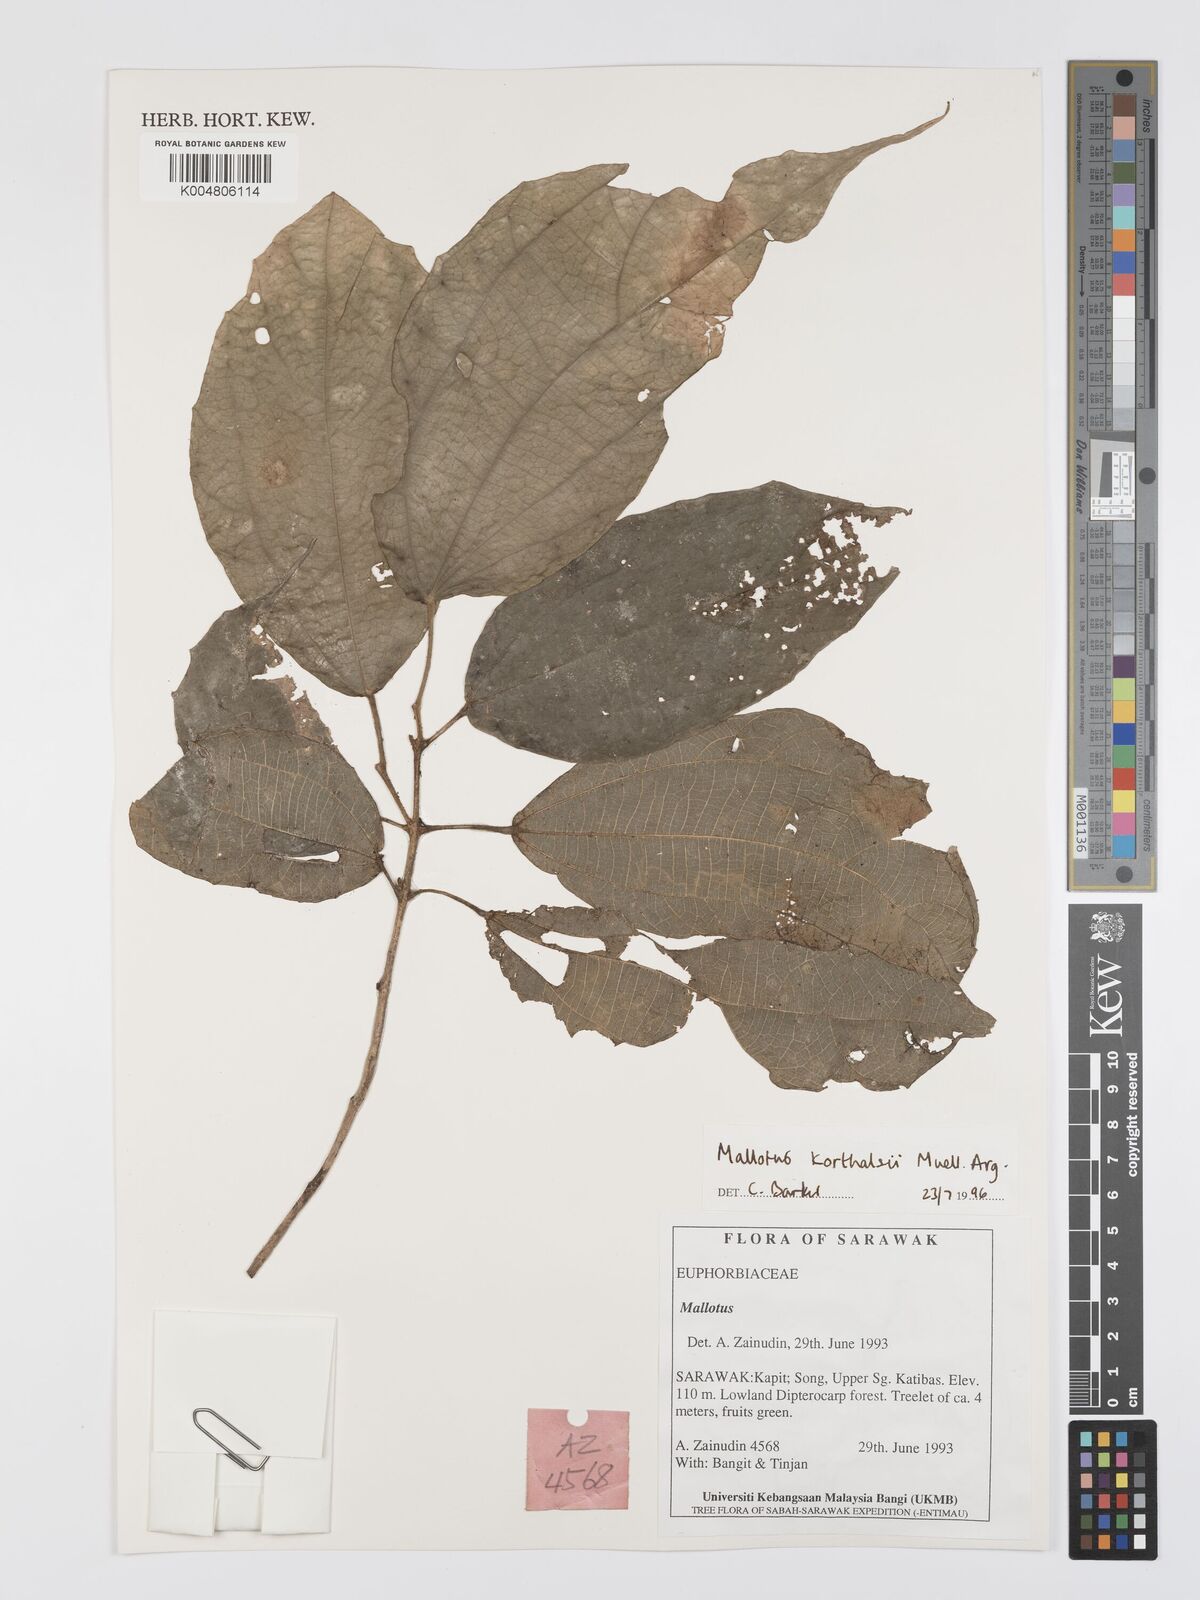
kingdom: Plantae
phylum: Tracheophyta
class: Magnoliopsida
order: Malpighiales
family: Euphorbiaceae
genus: Mallotus
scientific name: Mallotus korthalsii
